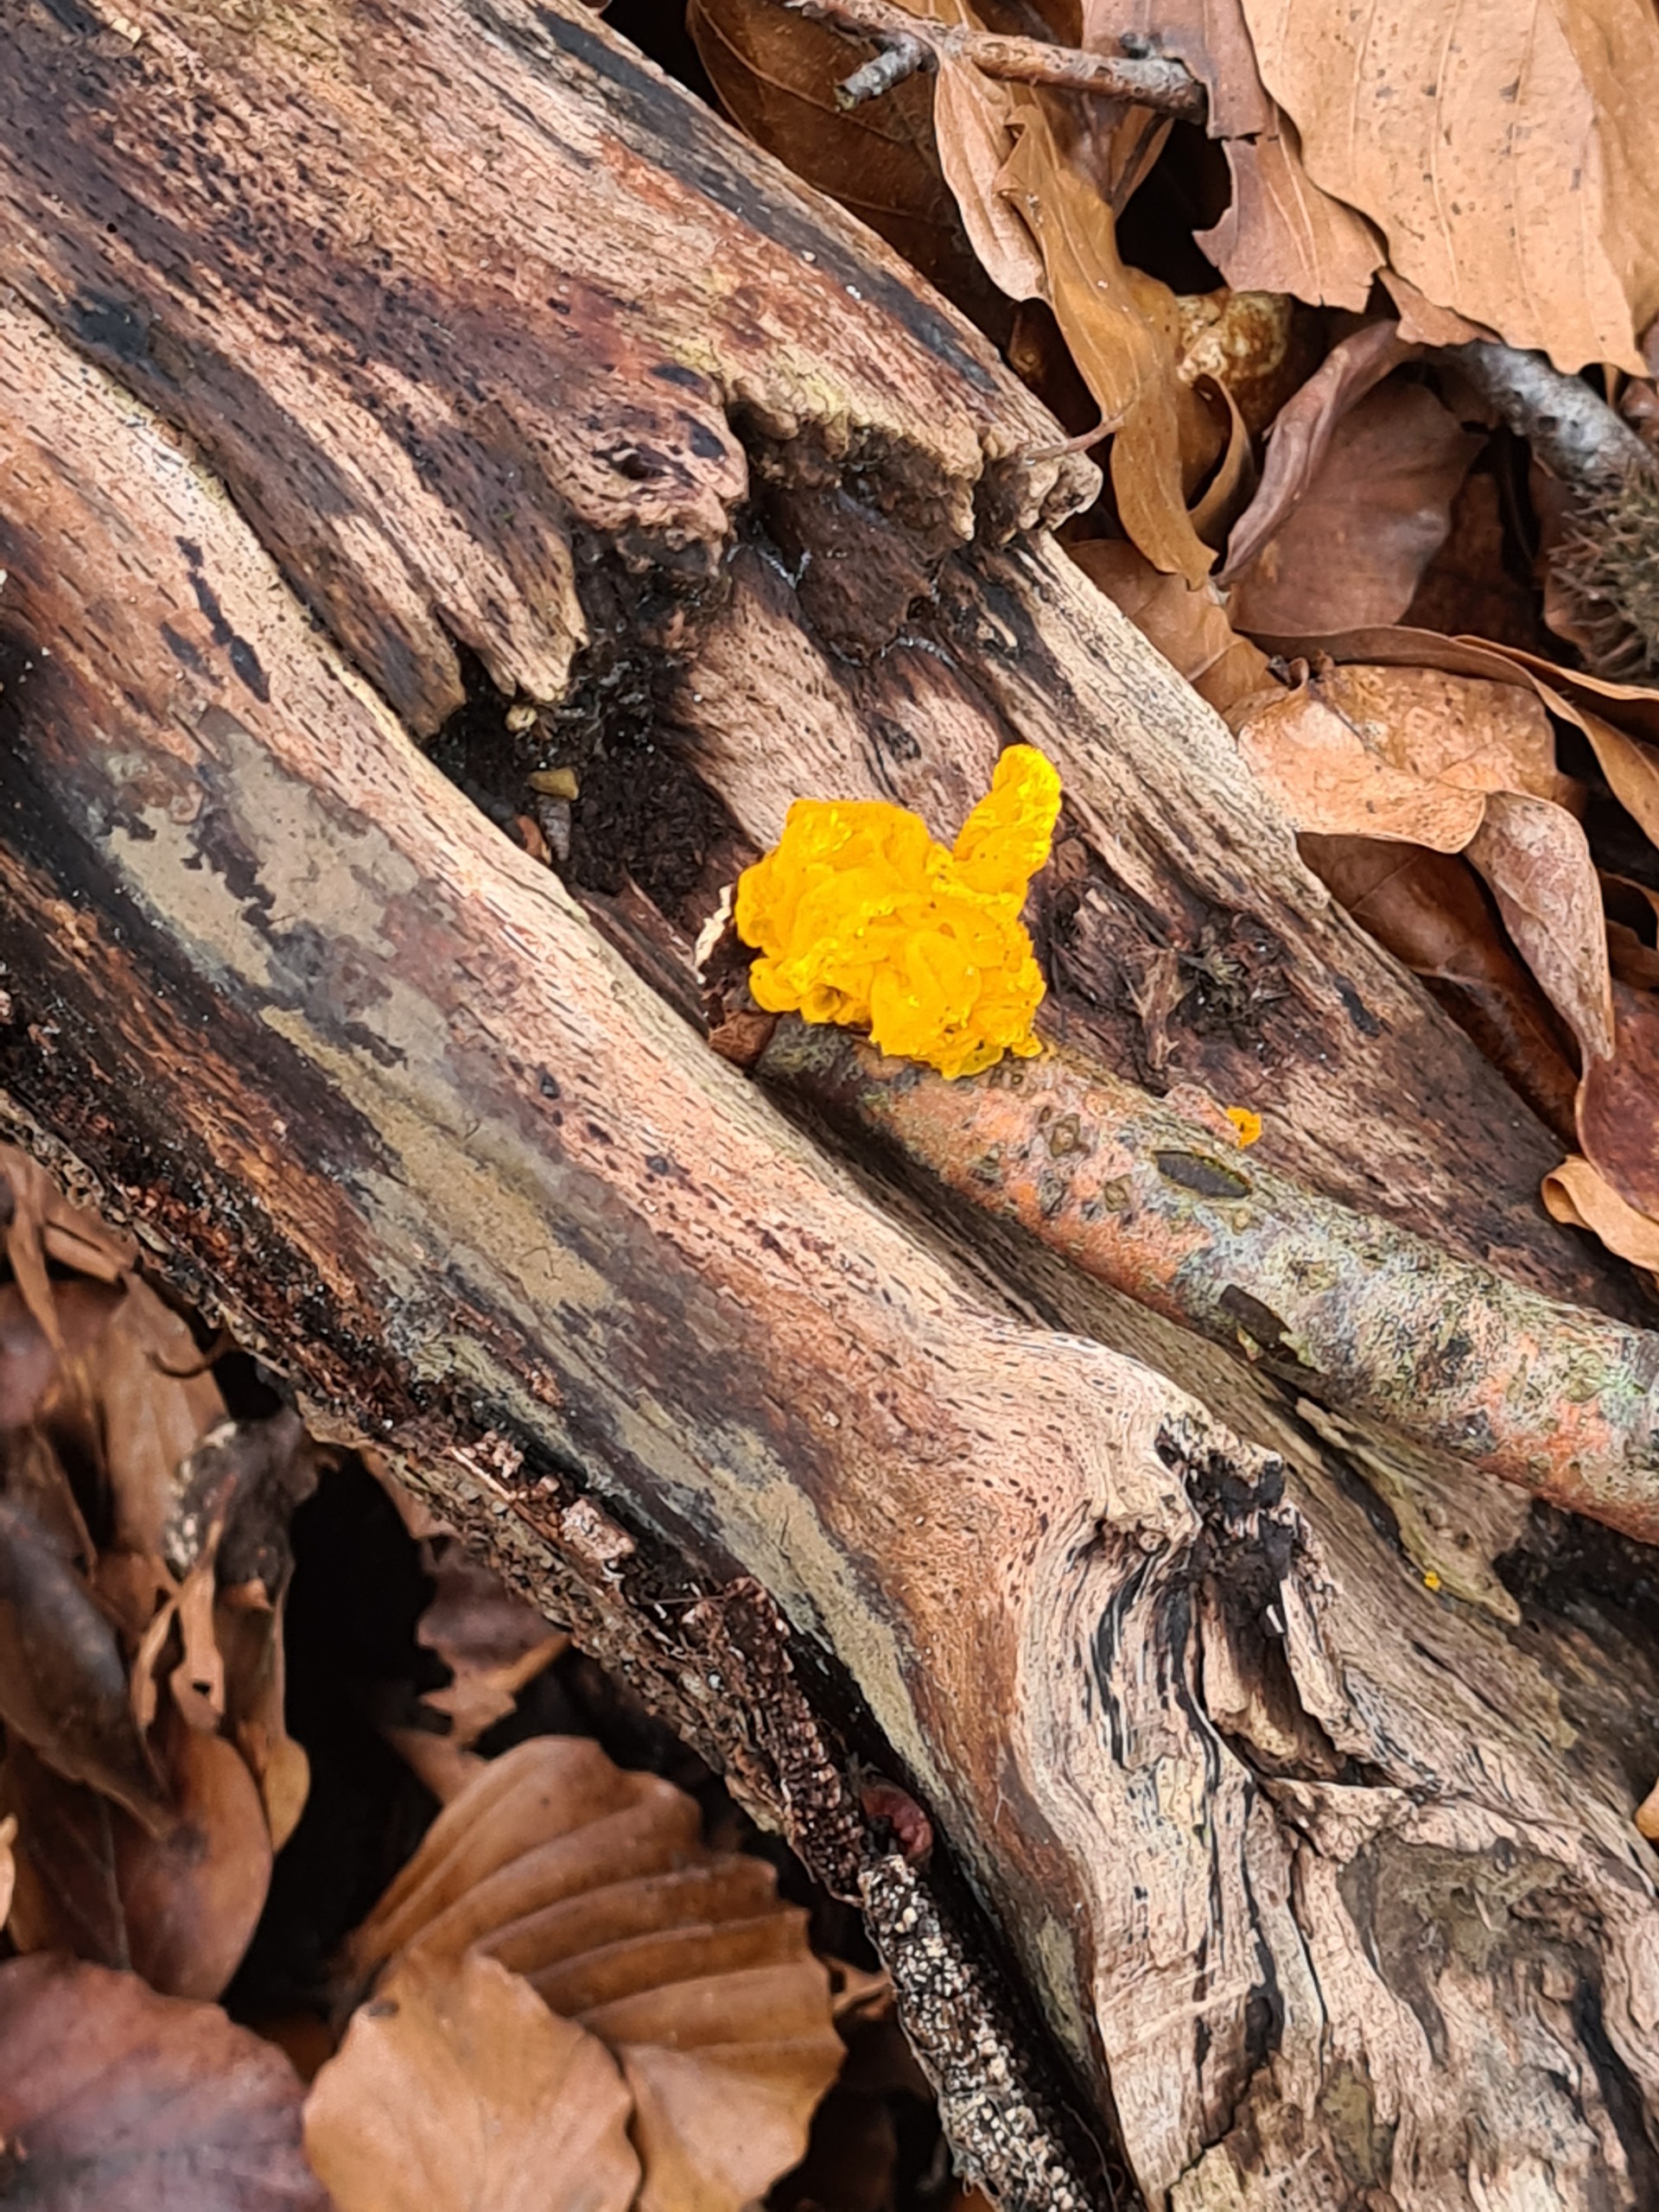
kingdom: Fungi
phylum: Basidiomycota
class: Tremellomycetes
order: Tremellales
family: Tremellaceae
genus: Tremella
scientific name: Tremella mesenterica
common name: Gul bævresvamp
